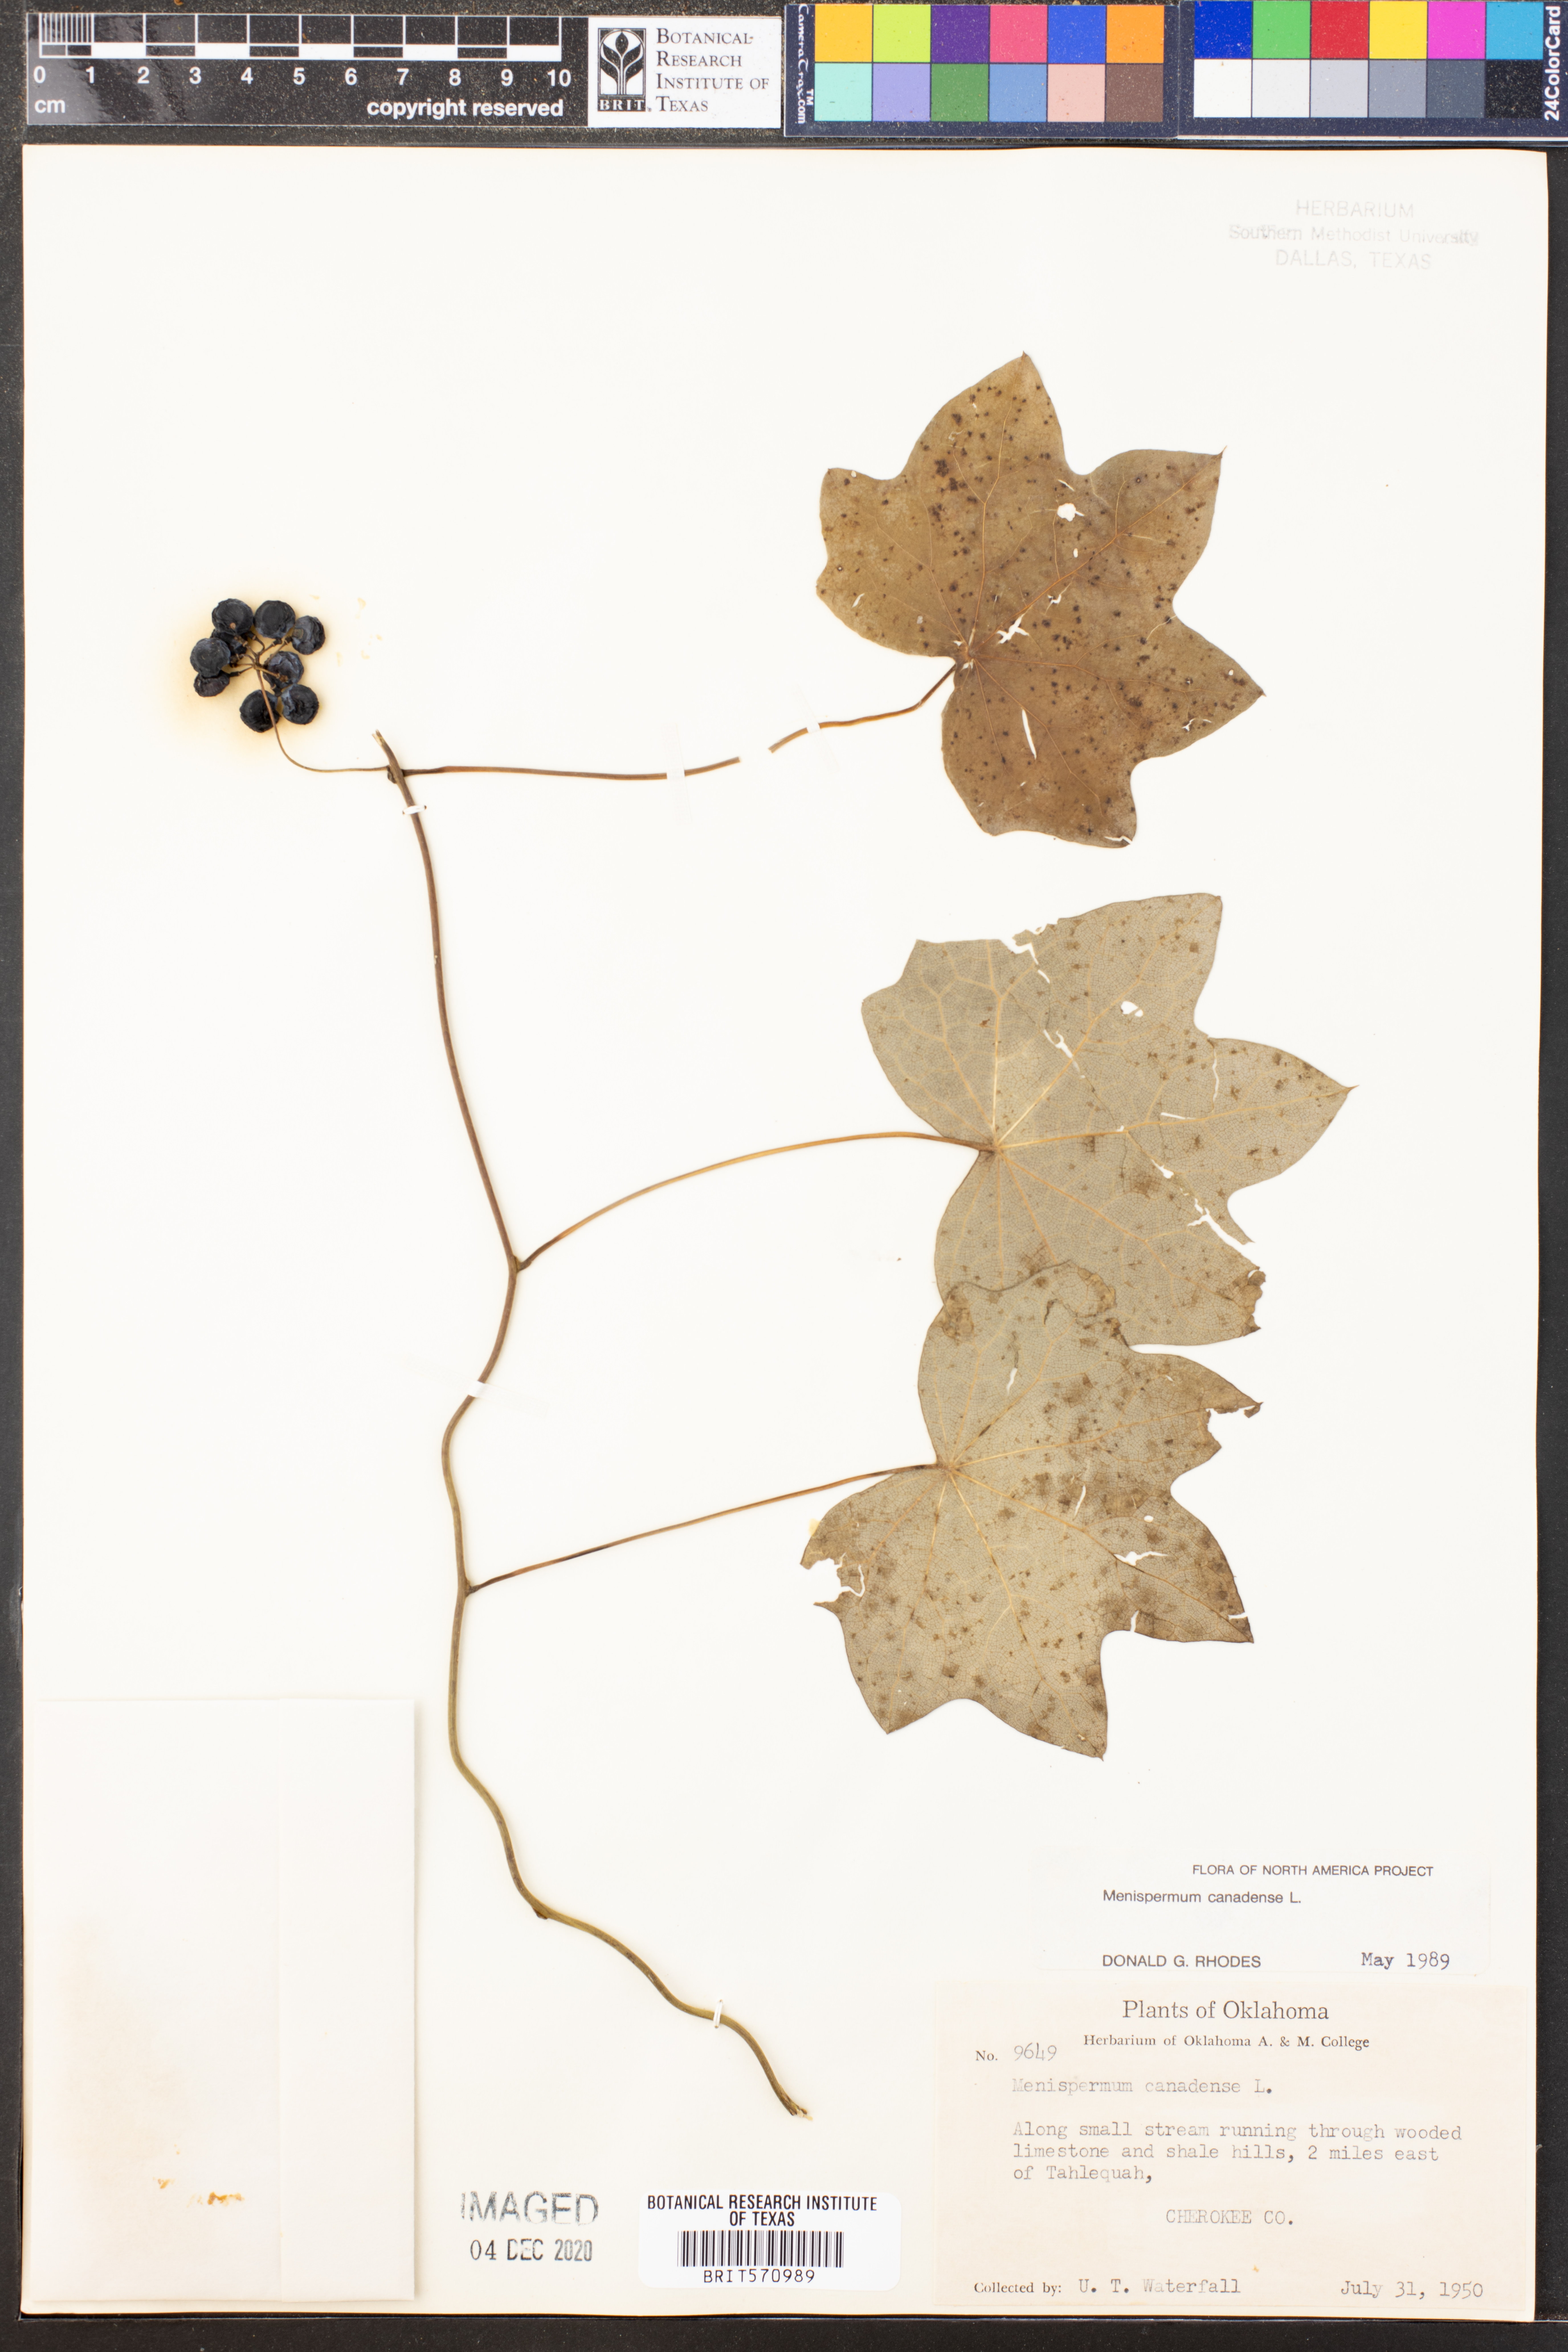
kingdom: Plantae
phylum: Tracheophyta
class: Magnoliopsida
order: Ranunculales
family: Menispermaceae
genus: Menispermum
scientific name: Menispermum canadense
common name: Moonseed
